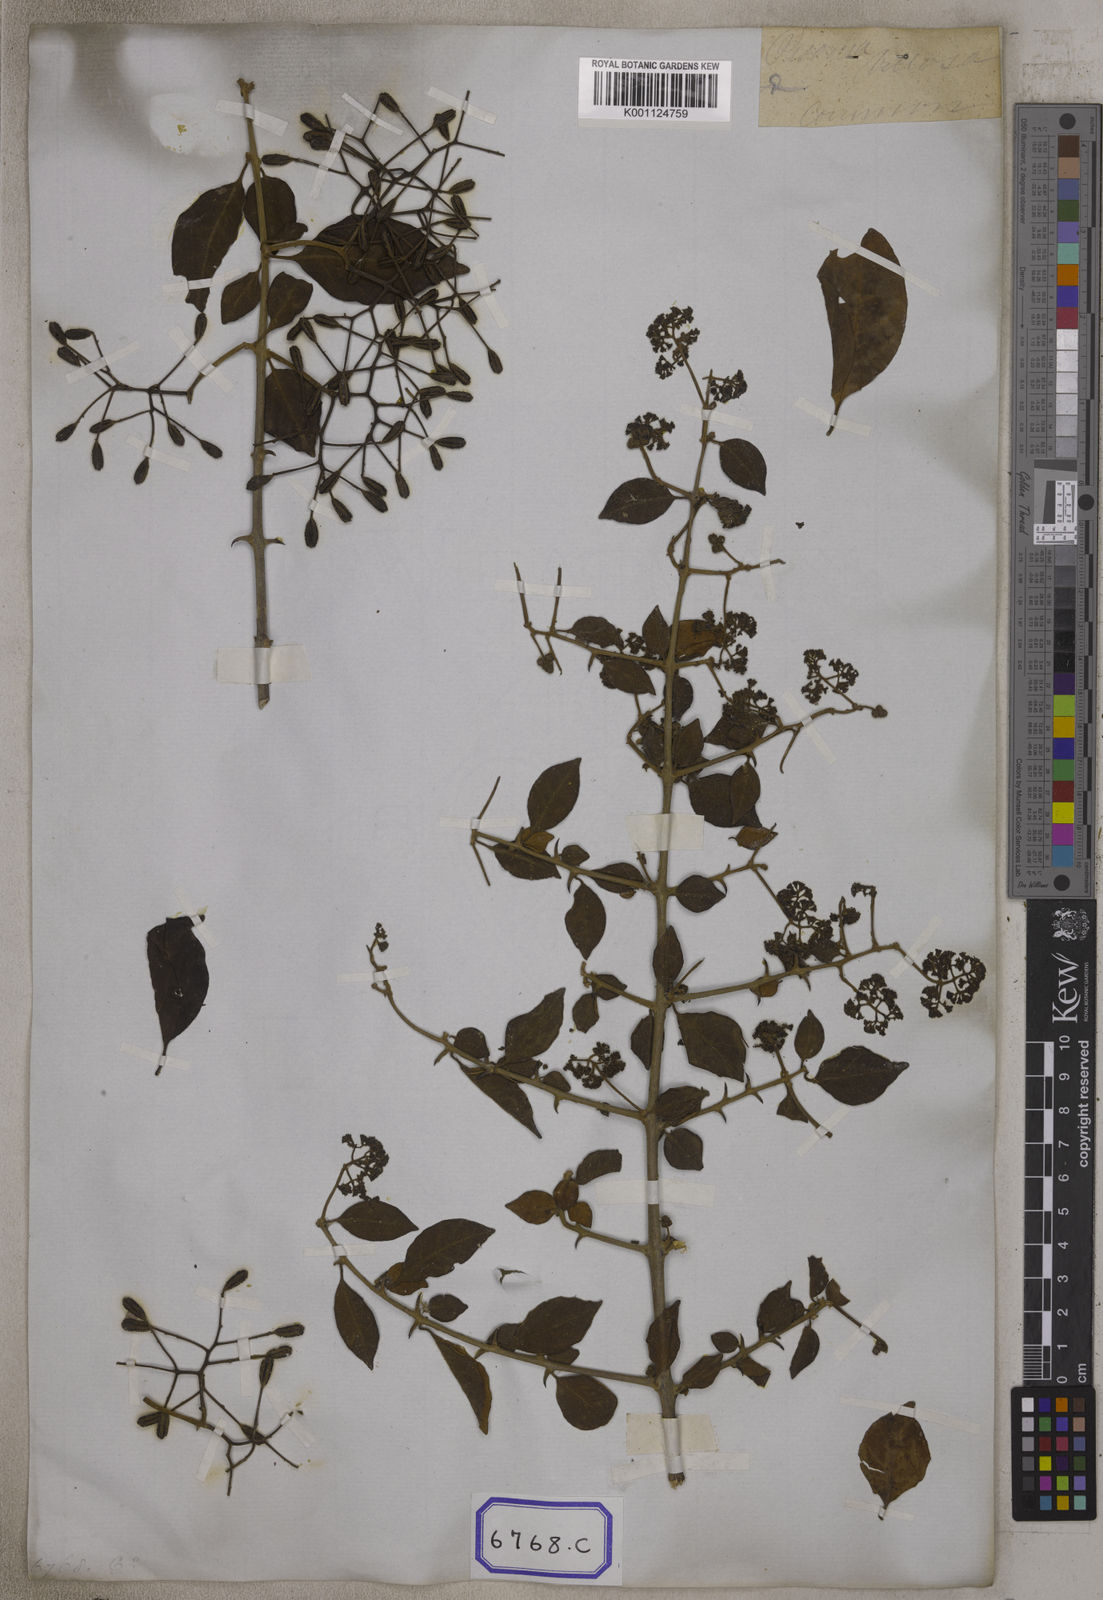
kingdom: Plantae
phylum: Tracheophyta
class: Magnoliopsida
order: Caryophyllales
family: Nyctaginaceae
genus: Pisonia
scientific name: Pisonia aculeata
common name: Cockspur vine
